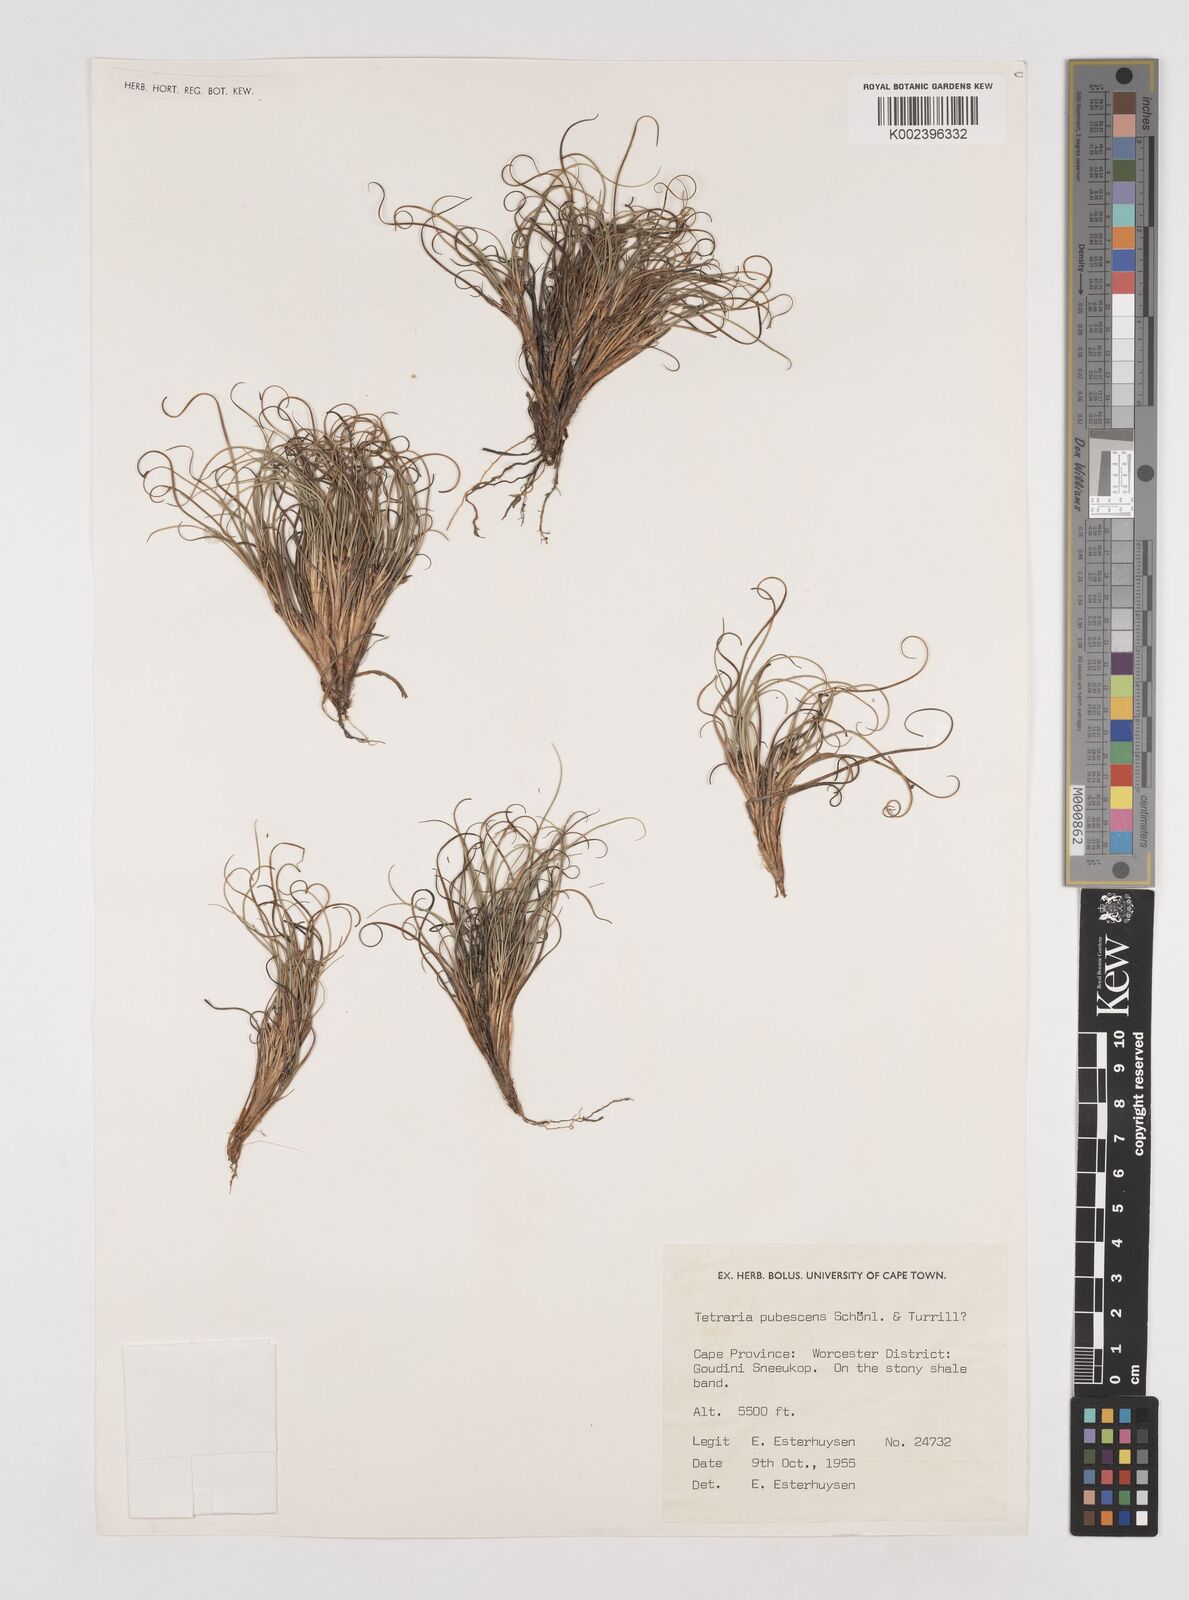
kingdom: Plantae
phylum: Tracheophyta
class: Liliopsida
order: Poales
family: Cyperaceae
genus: Tetraria
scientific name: Tetraria pubescens
